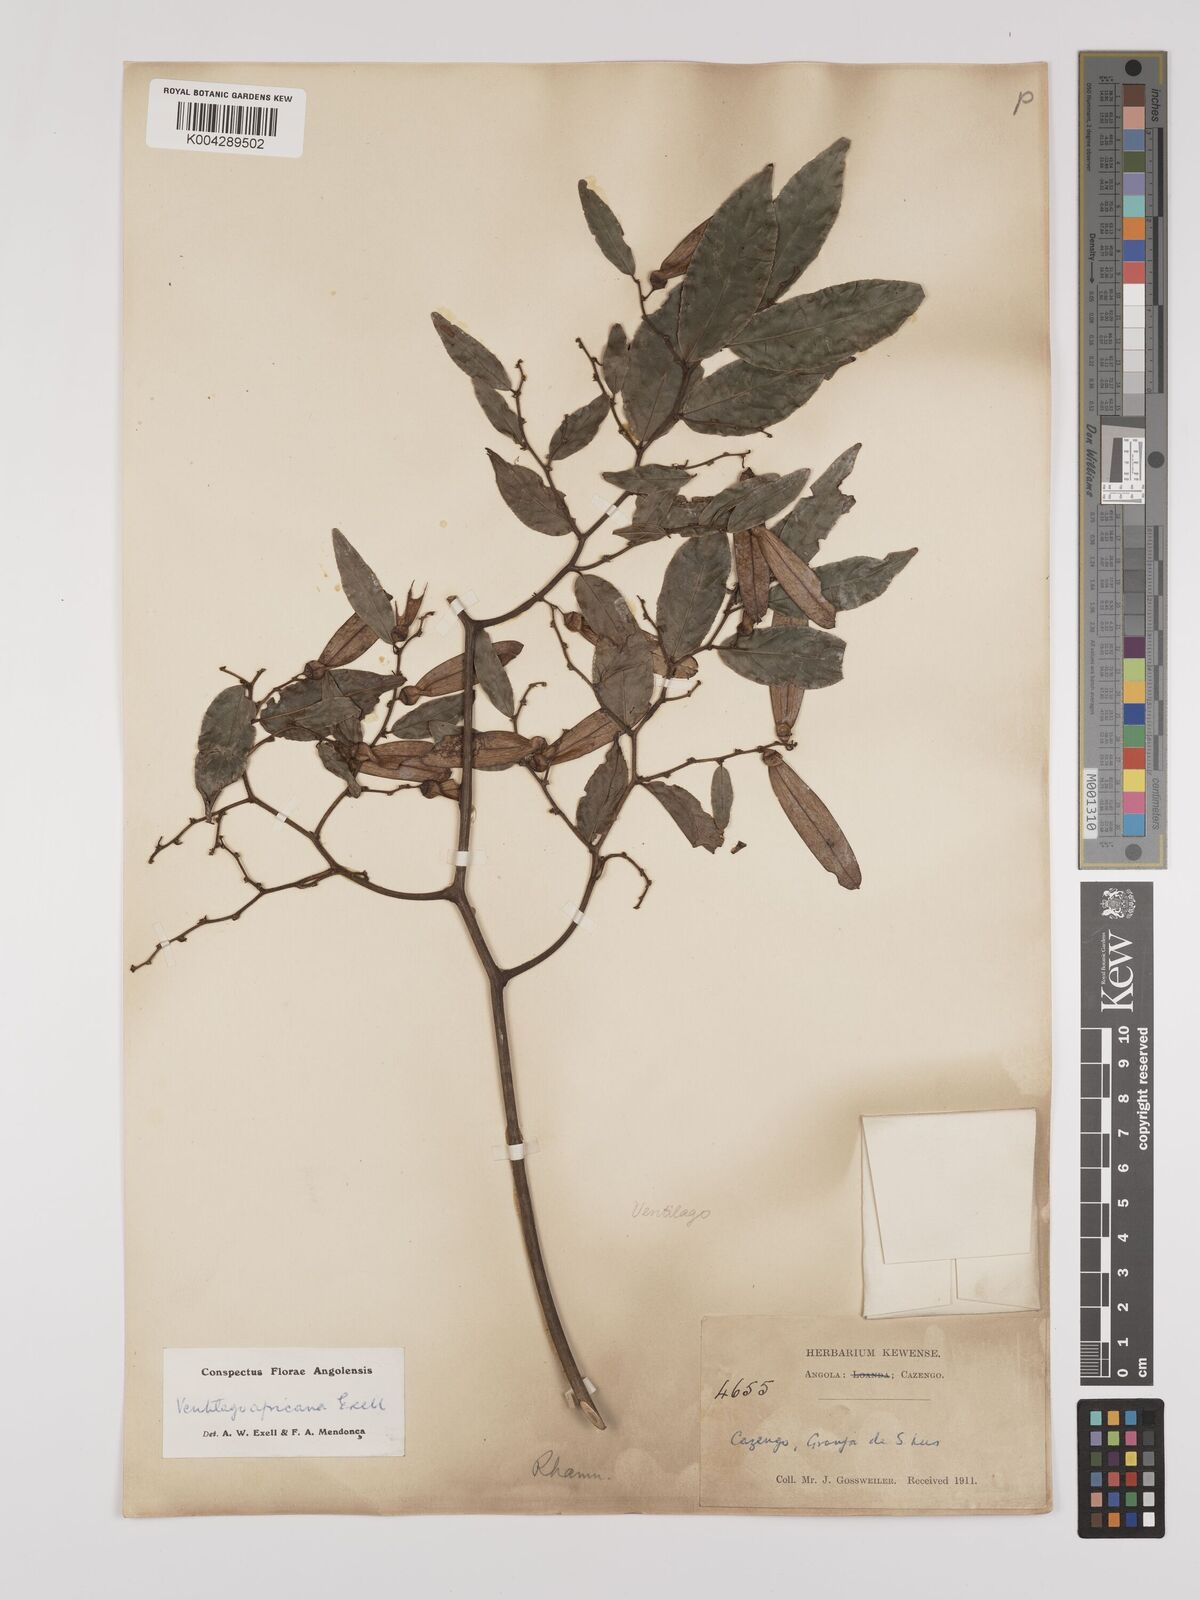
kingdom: Plantae
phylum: Tracheophyta
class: Magnoliopsida
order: Rosales
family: Rhamnaceae
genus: Ventilago
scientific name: Ventilago africana
